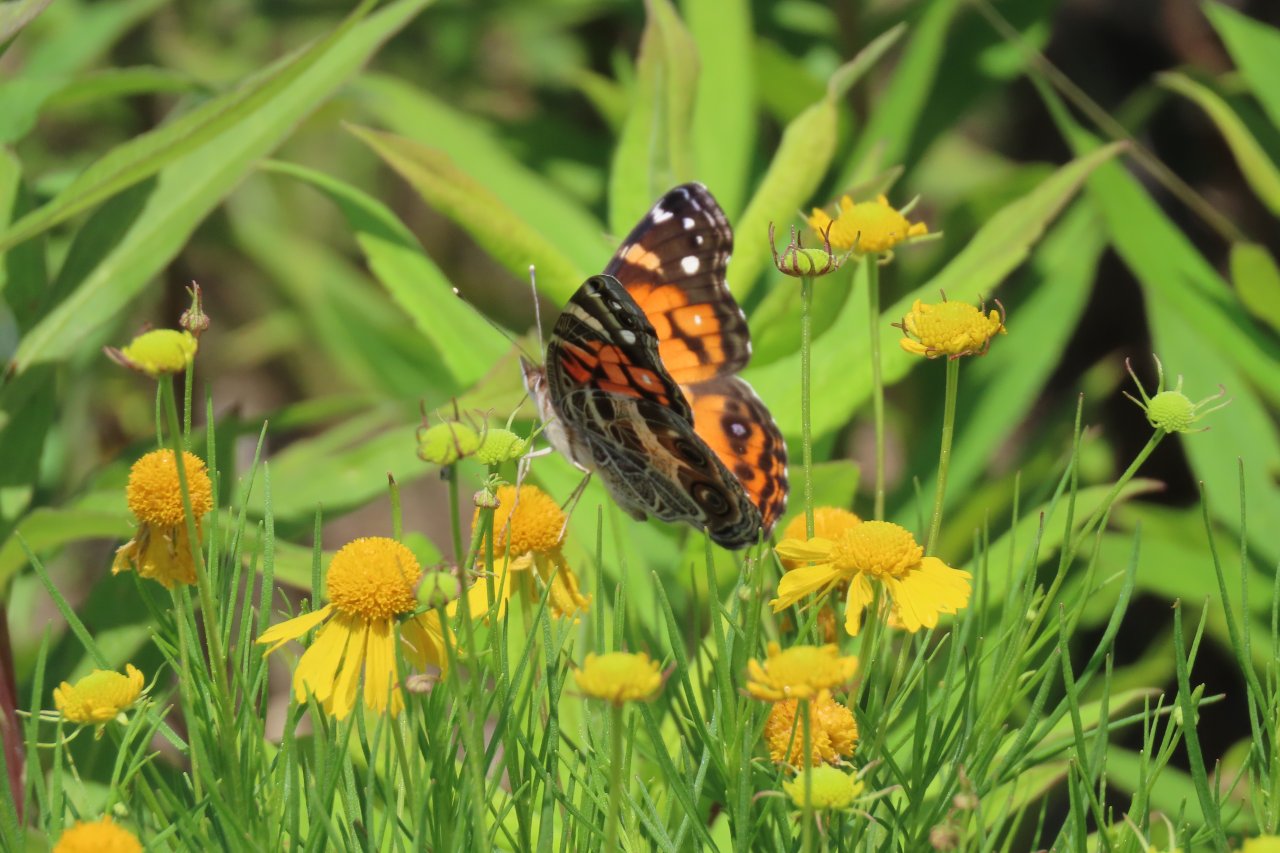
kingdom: Animalia
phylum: Arthropoda
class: Insecta
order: Lepidoptera
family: Nymphalidae
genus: Vanessa
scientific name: Vanessa virginiensis
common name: American Lady
